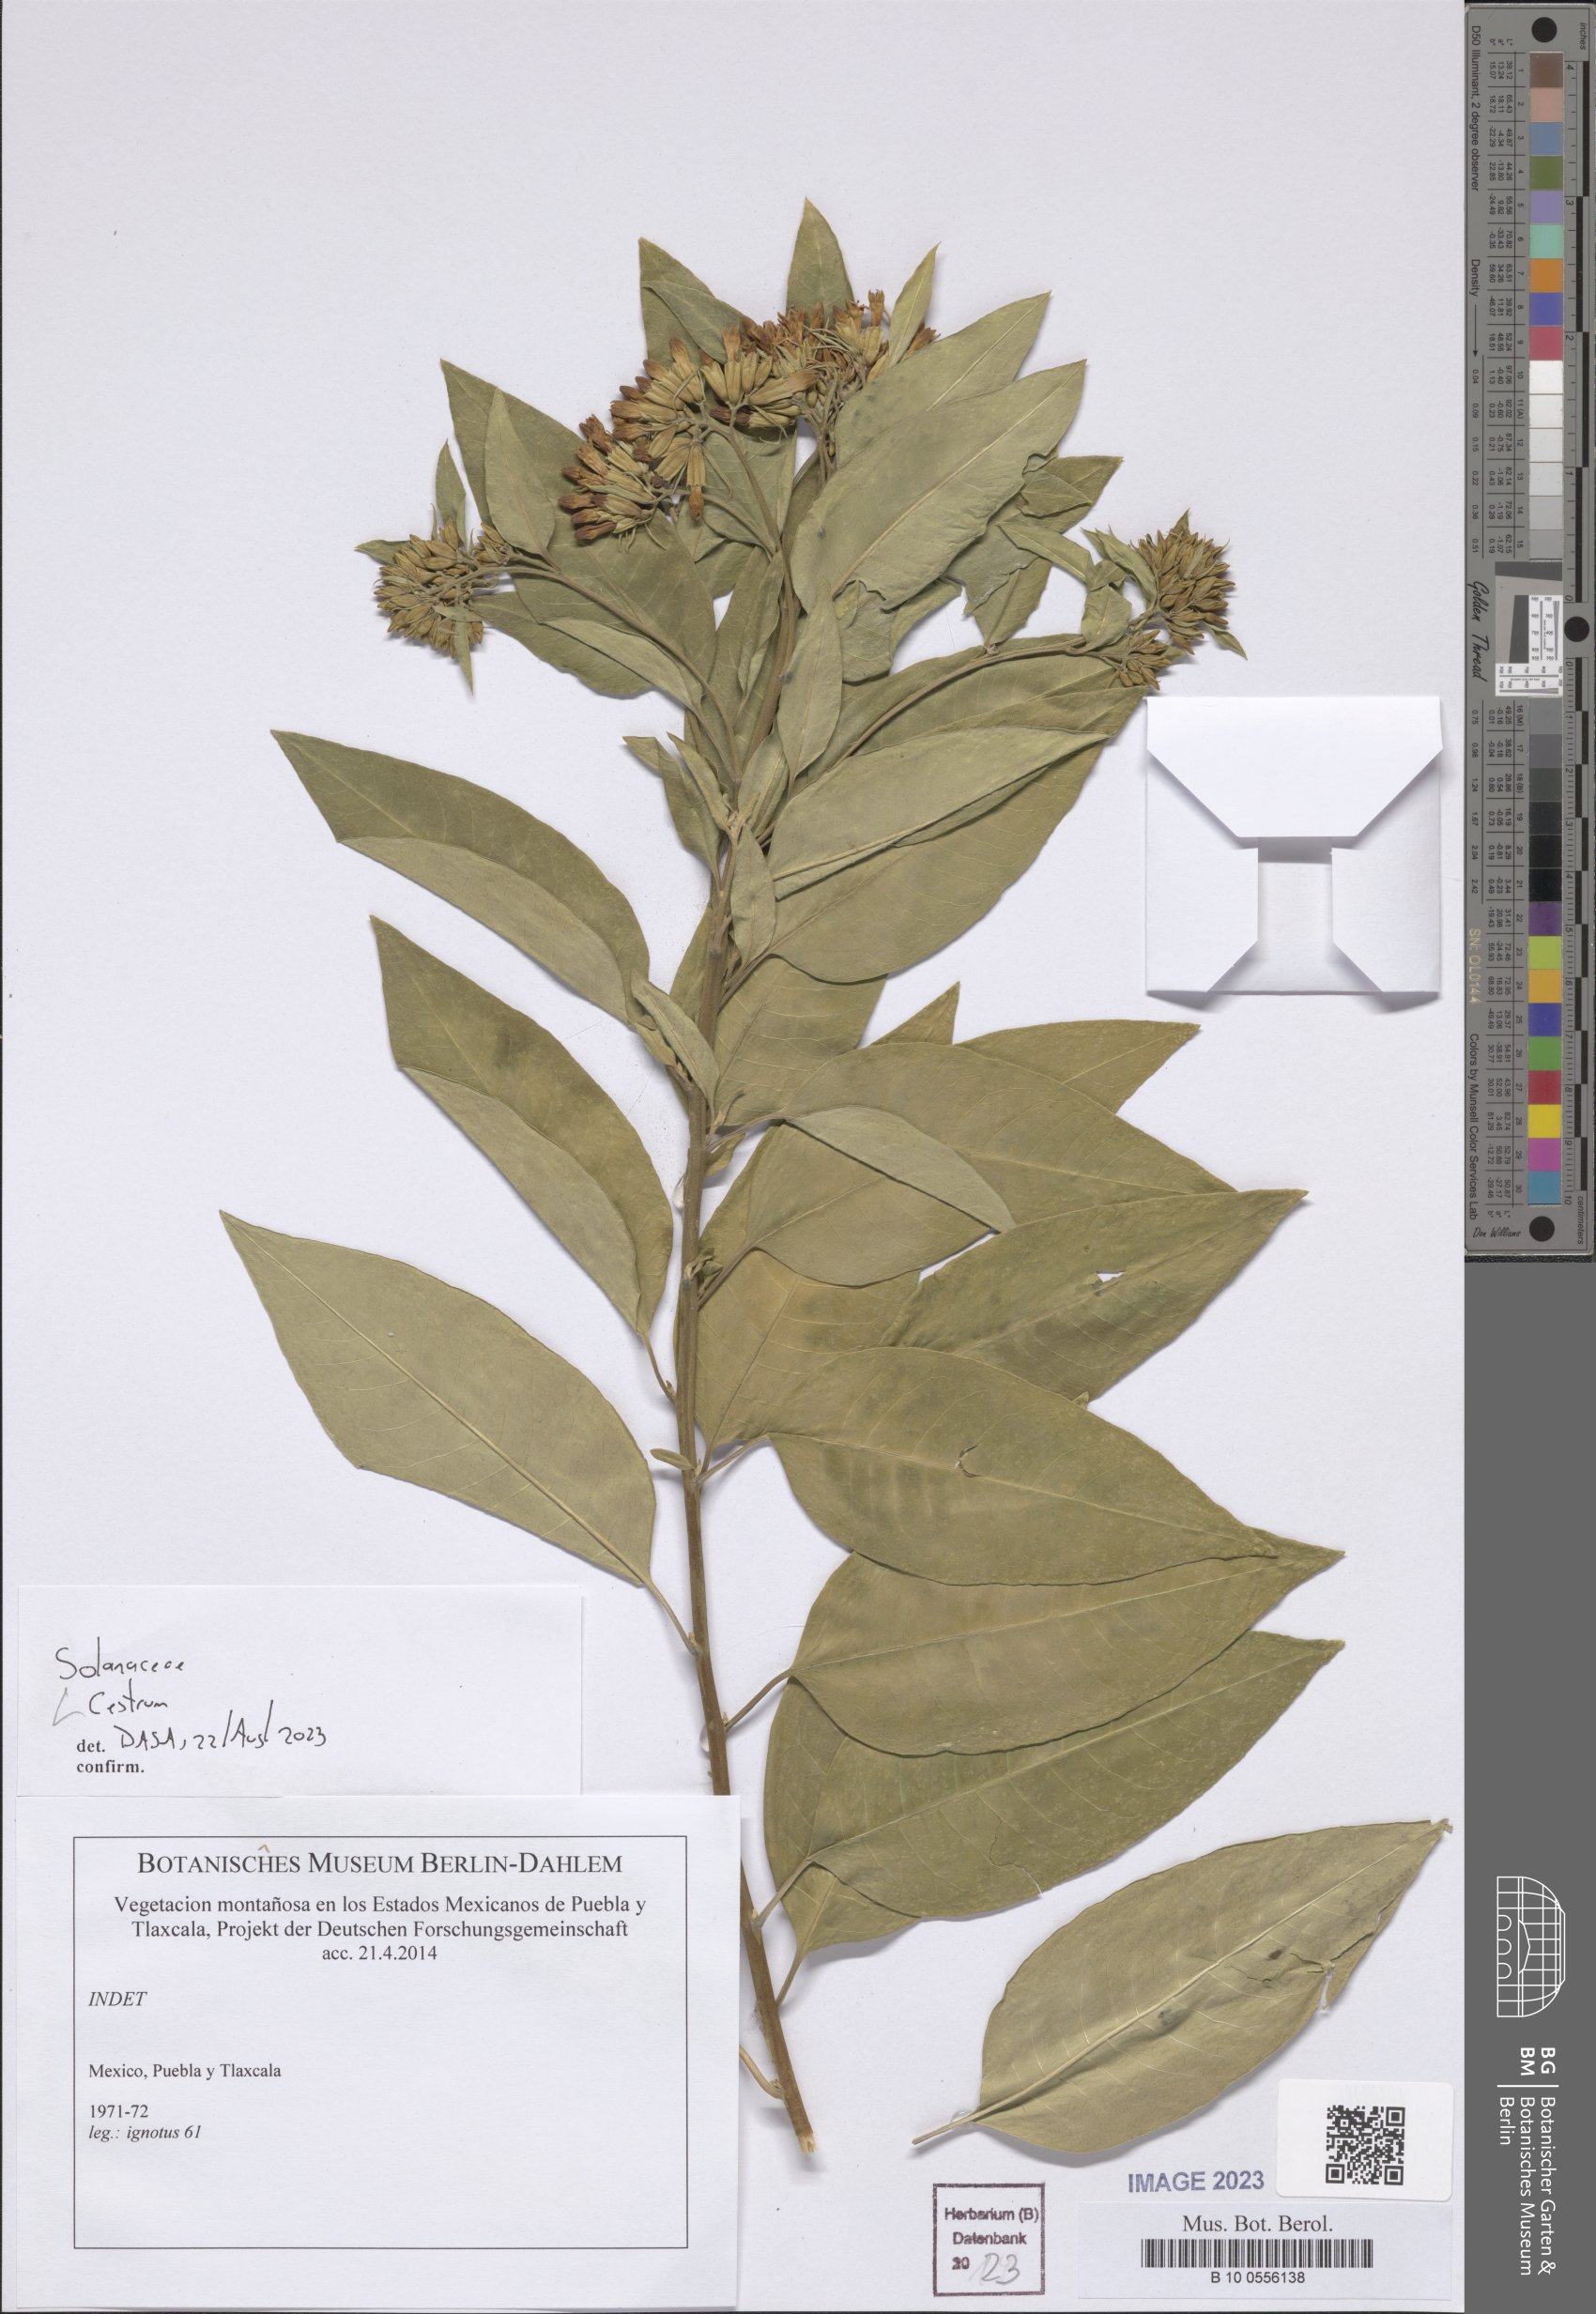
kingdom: Plantae
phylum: Tracheophyta
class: Magnoliopsida
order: Solanales
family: Solanaceae
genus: Cestrum
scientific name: Cestrum
